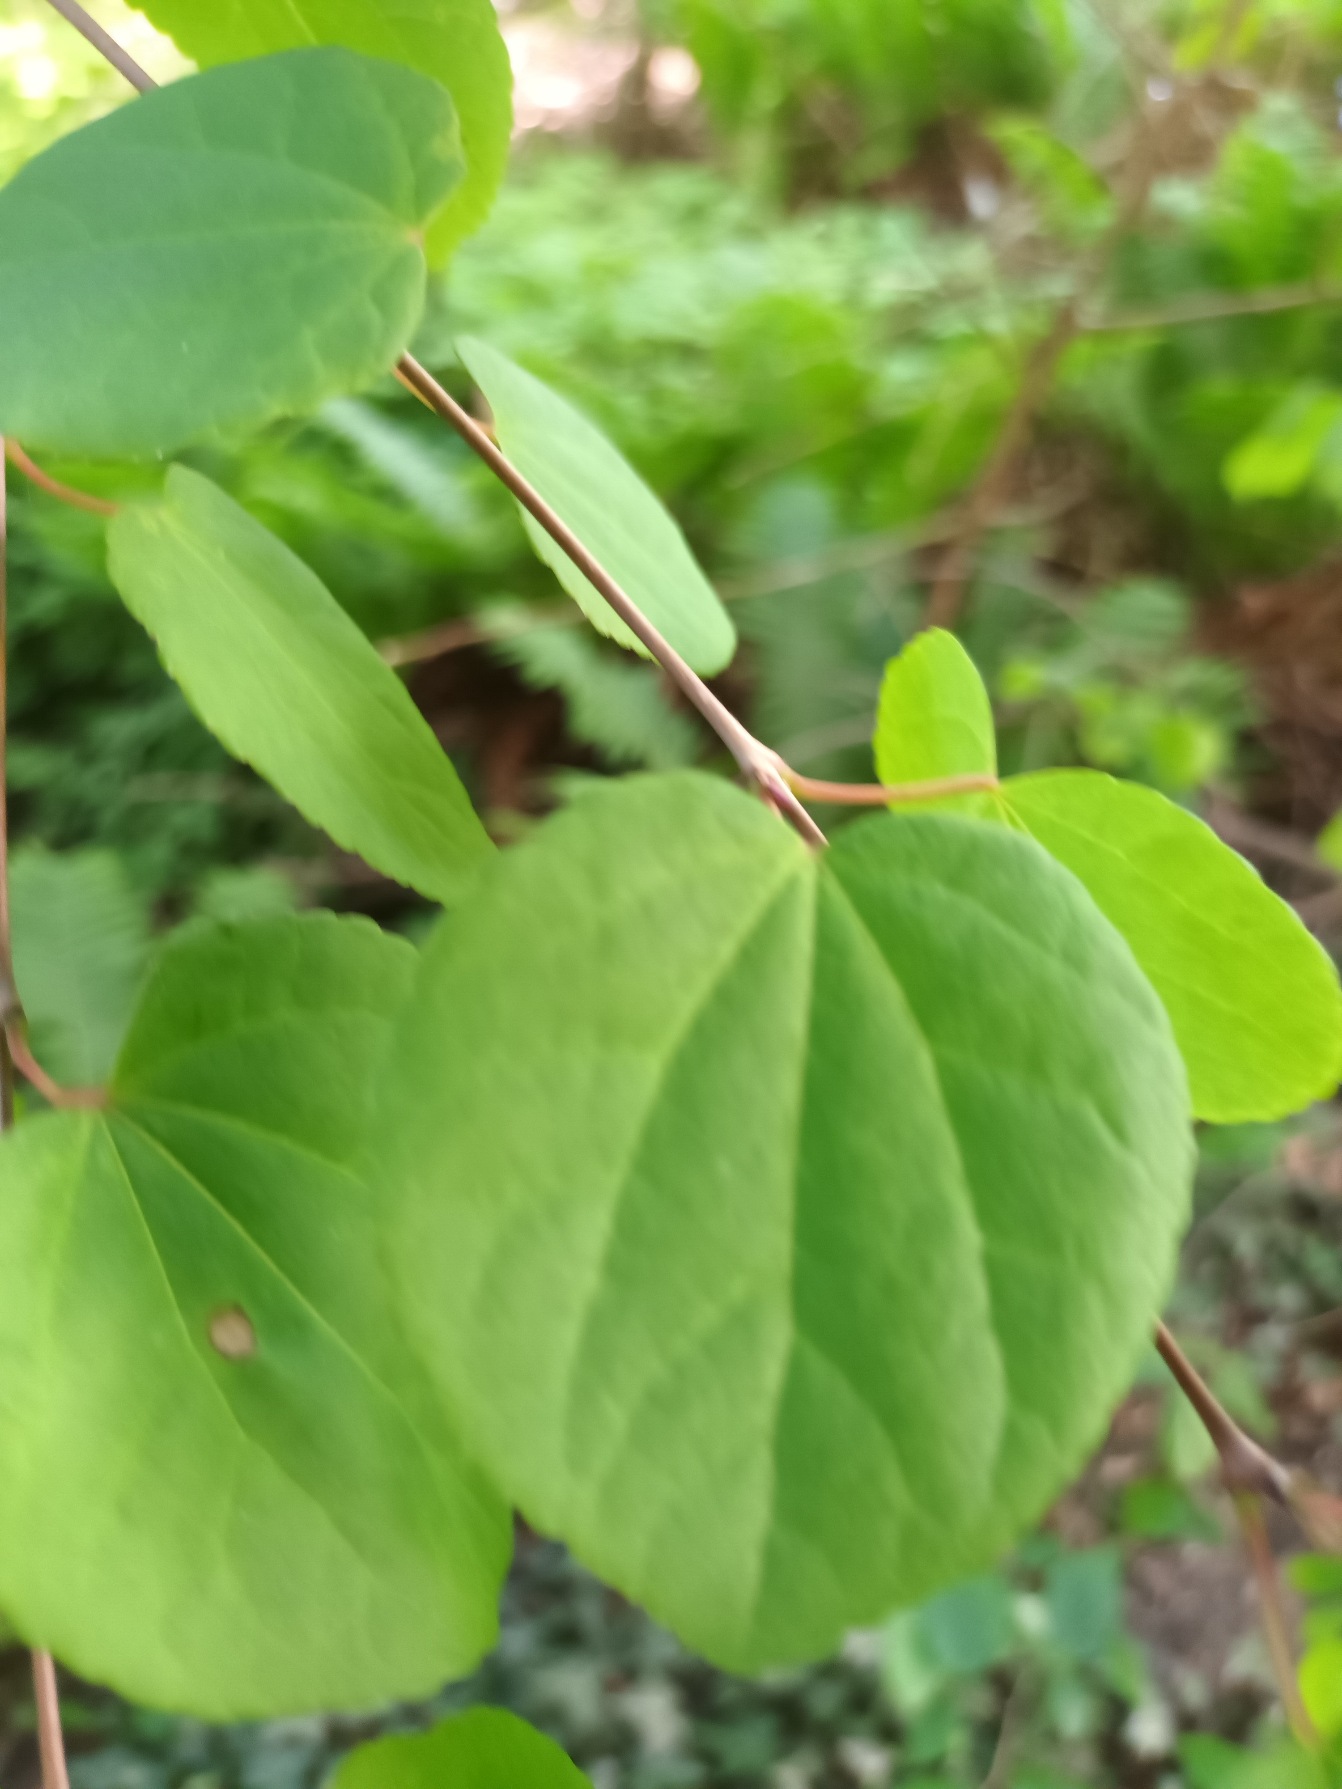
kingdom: Plantae
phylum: Tracheophyta
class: Magnoliopsida
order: Saxifragales
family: Cercidiphyllaceae
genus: Cercidiphyllum
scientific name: Cercidiphyllum japonicum
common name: Hjertetræ
